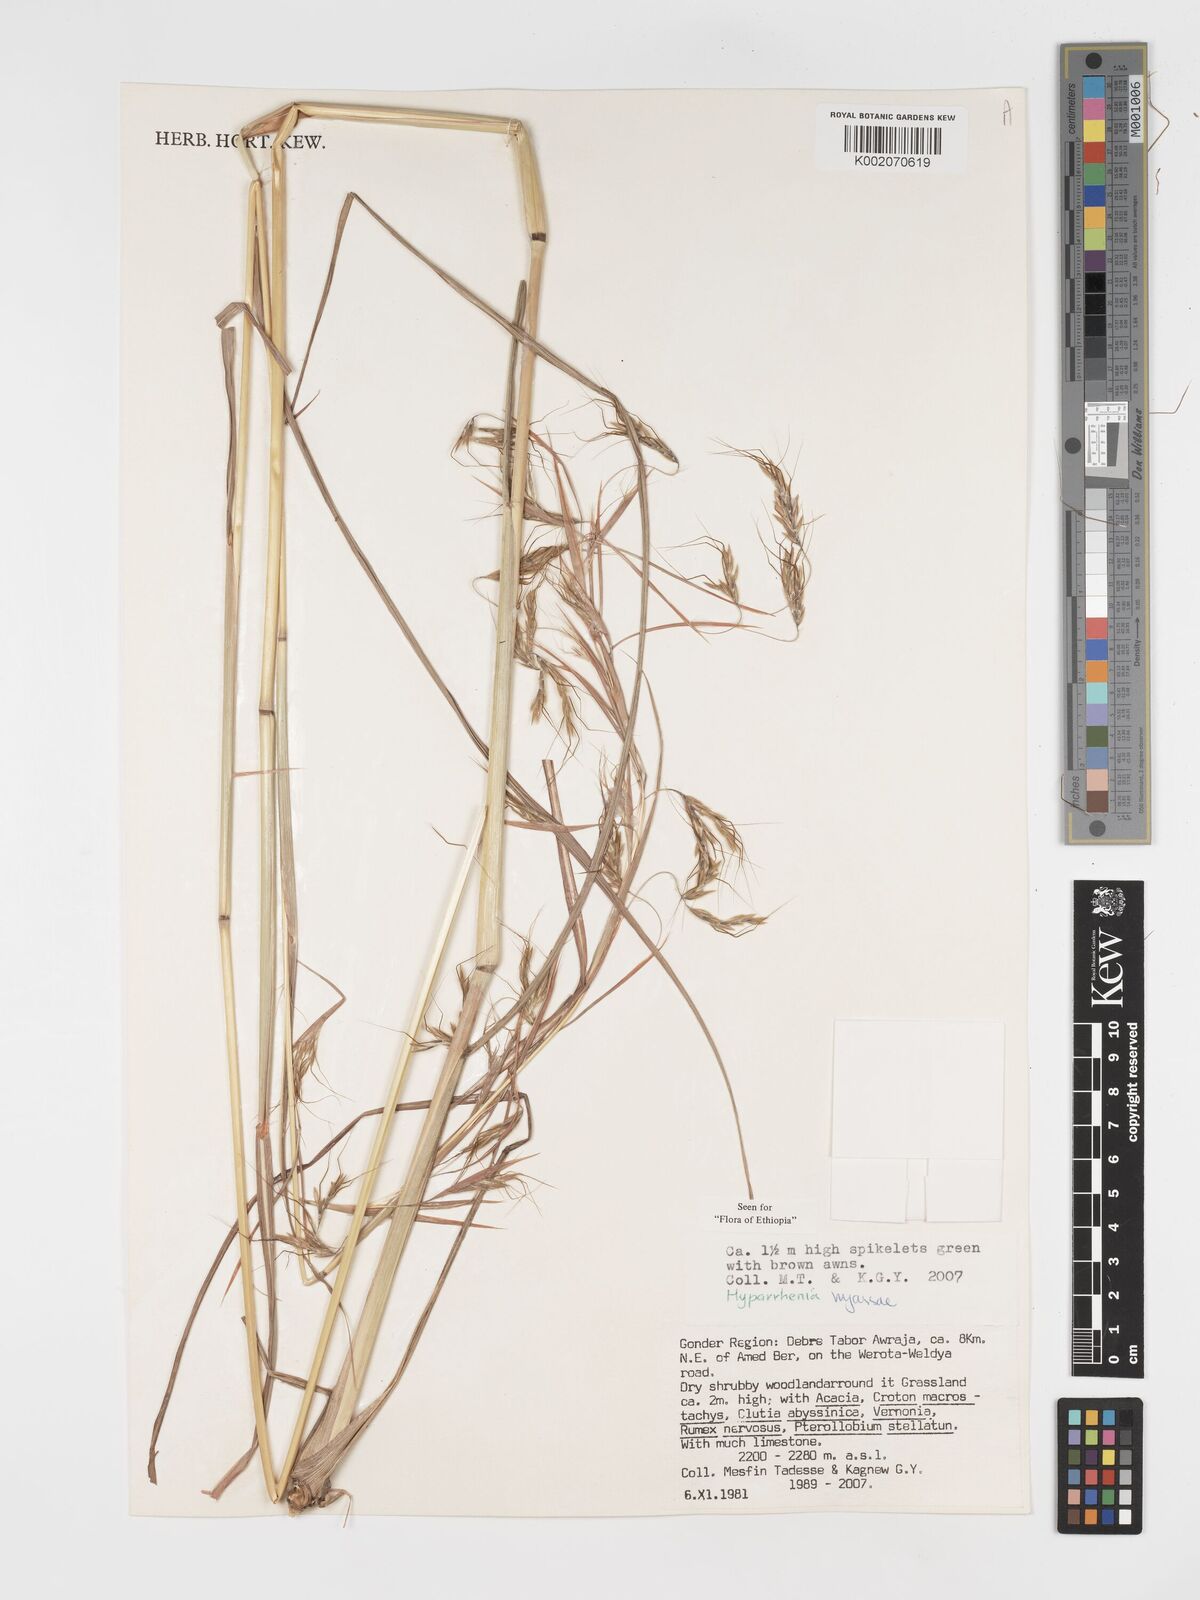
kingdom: Plantae
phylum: Tracheophyta
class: Liliopsida
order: Poales
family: Poaceae
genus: Hyparrhenia
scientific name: Hyparrhenia nyassae
